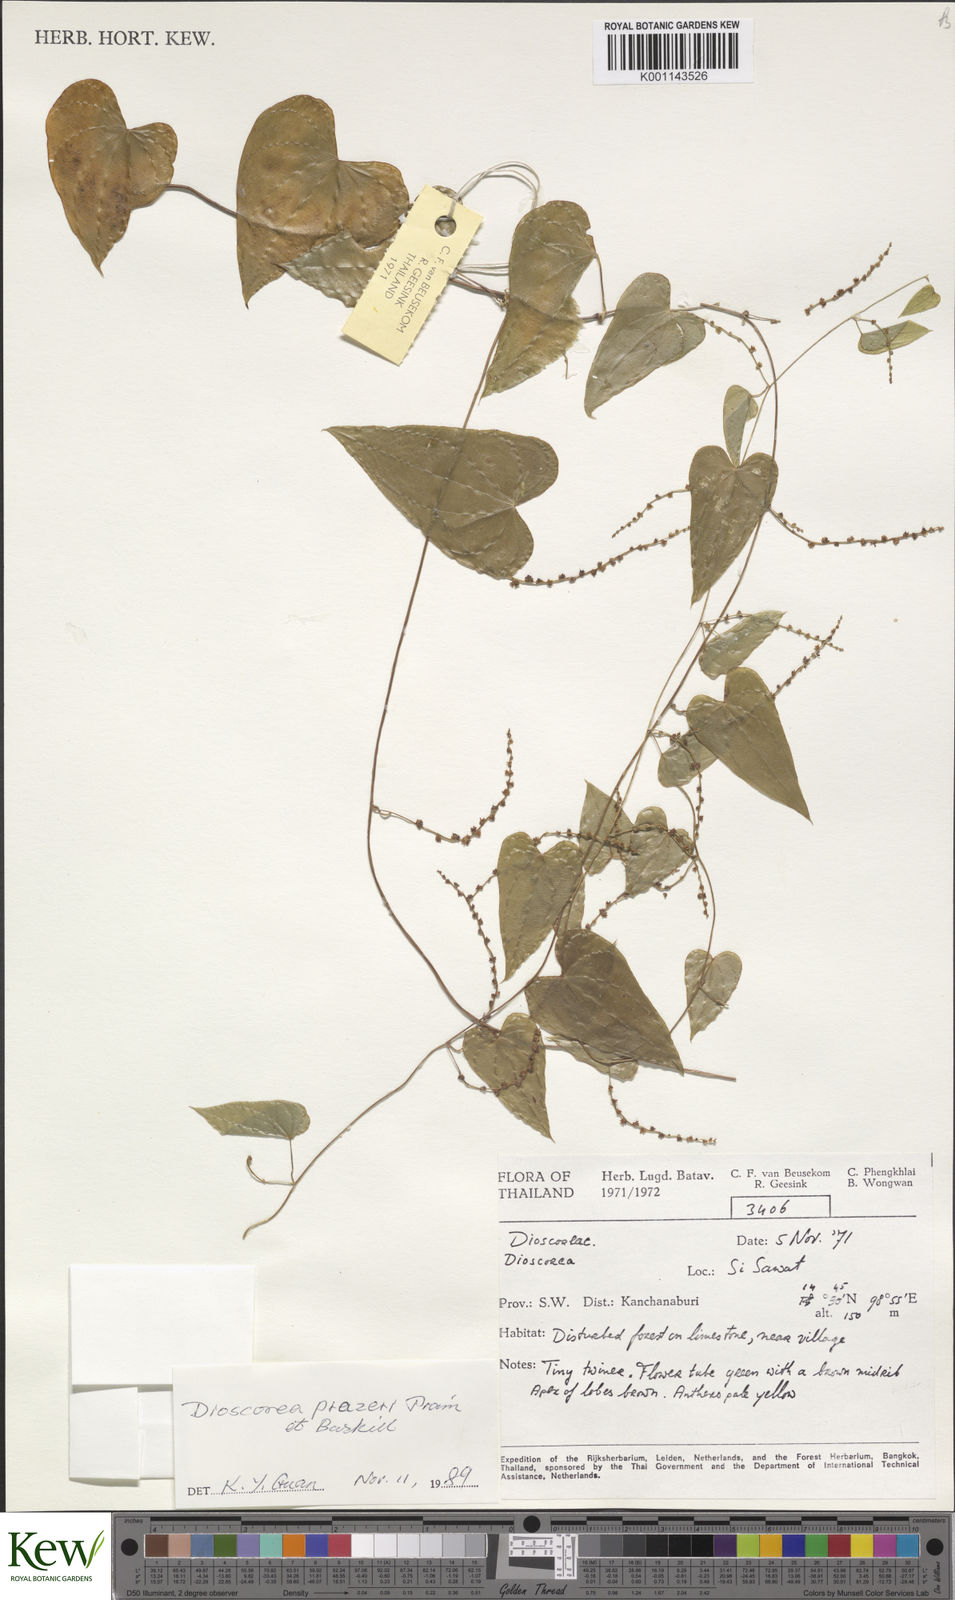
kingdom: Plantae
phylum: Tracheophyta
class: Liliopsida
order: Dioscoreales
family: Dioscoreaceae
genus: Dioscorea
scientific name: Dioscorea prazeri
